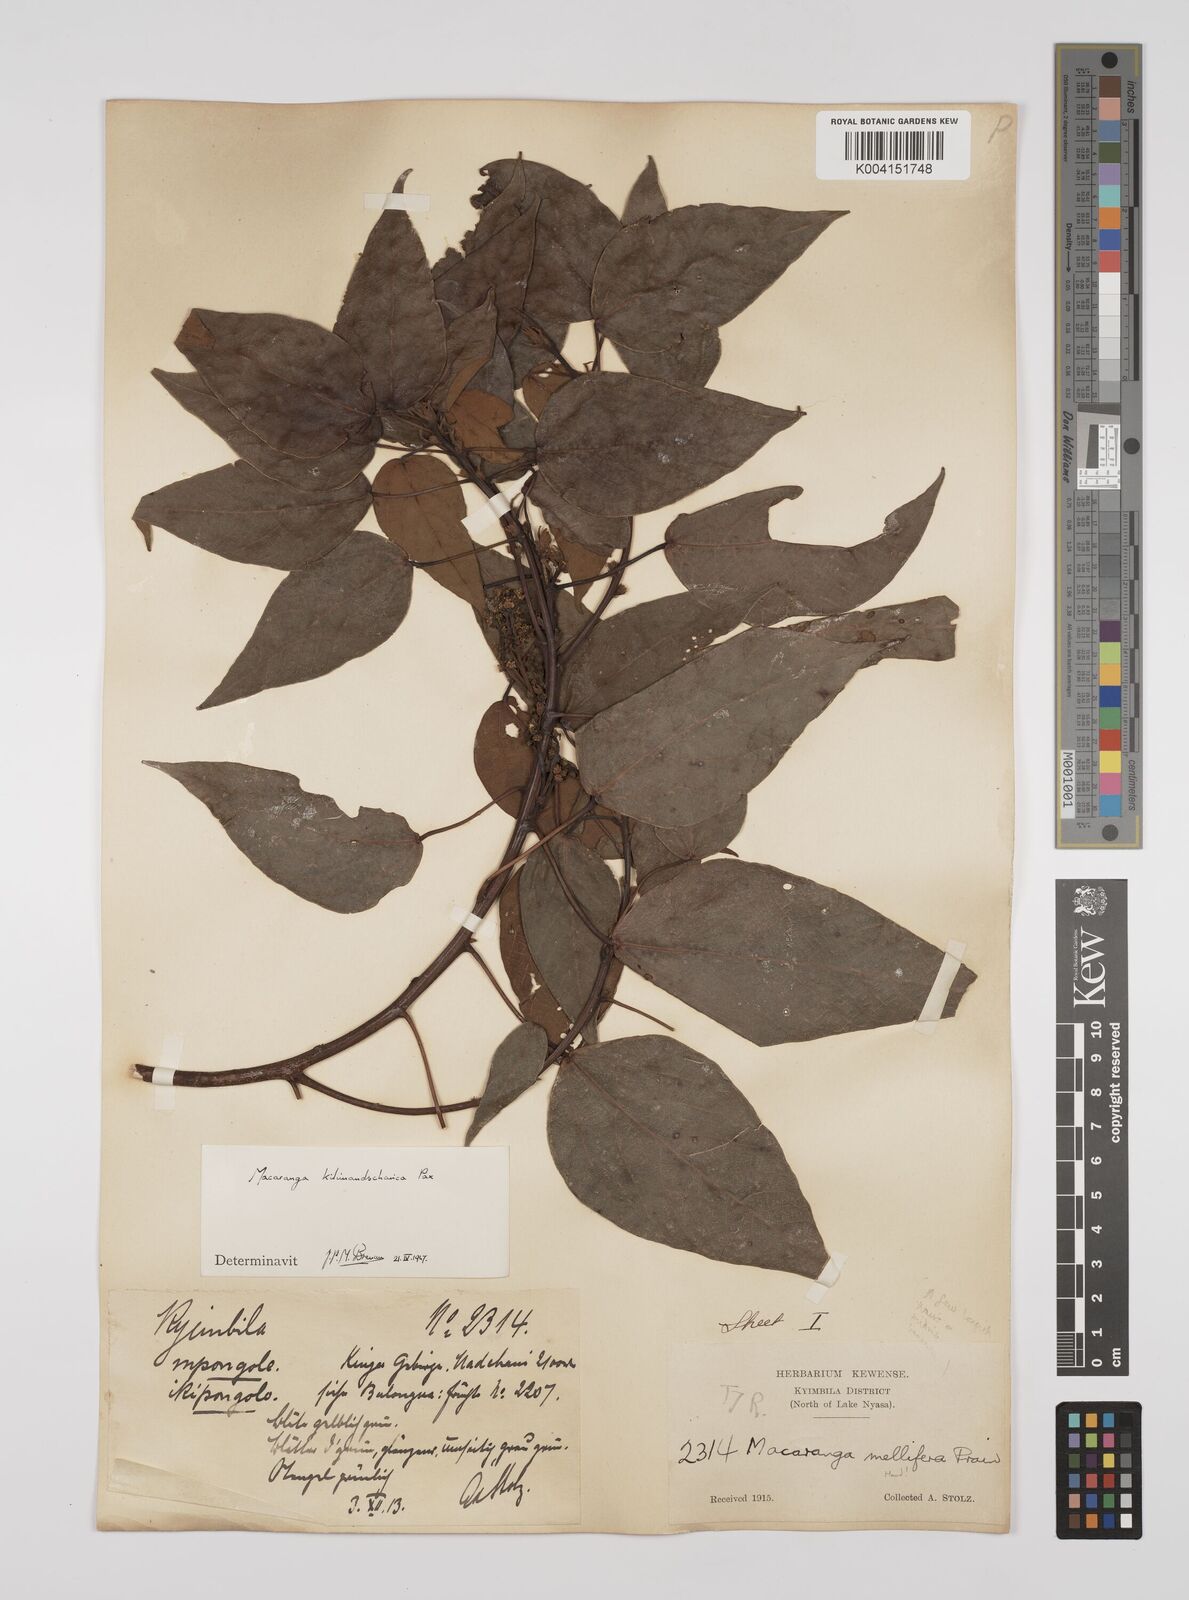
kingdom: Plantae
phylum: Tracheophyta
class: Magnoliopsida
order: Malpighiales
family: Euphorbiaceae
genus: Macaranga
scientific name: Macaranga kilimandscharica
